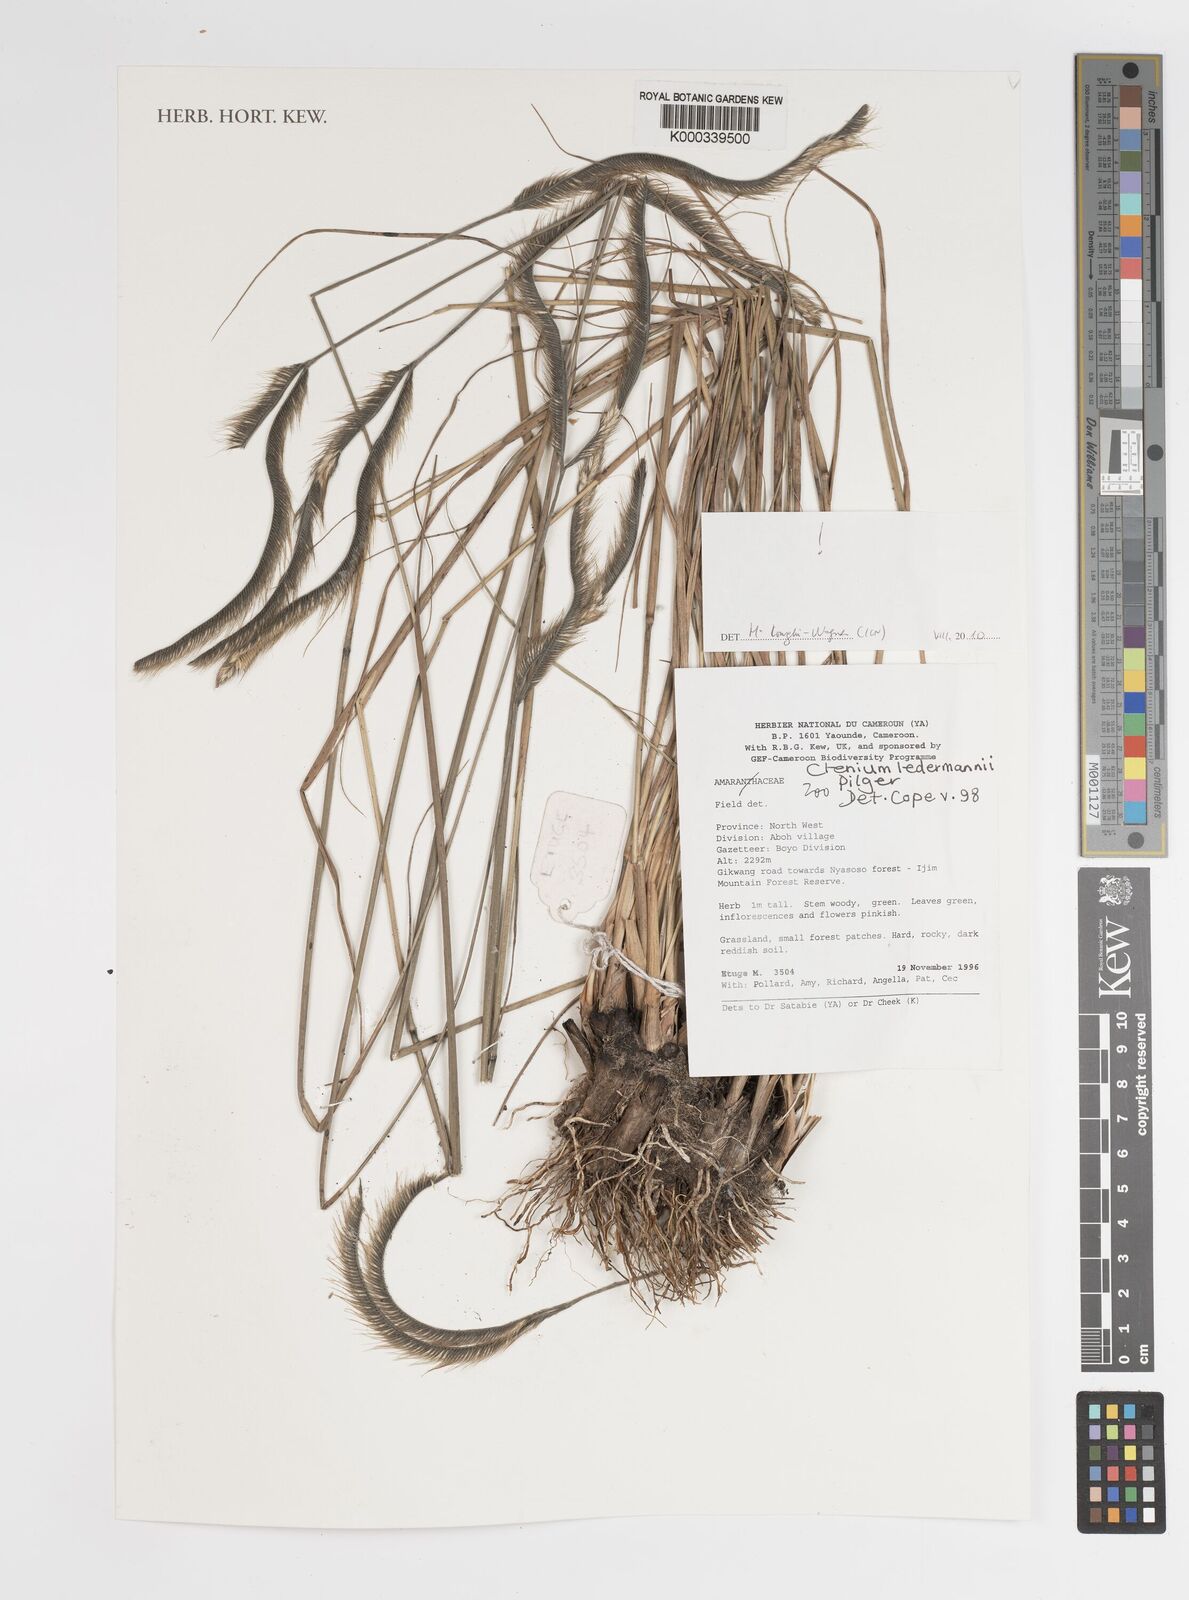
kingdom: Plantae
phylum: Tracheophyta
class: Liliopsida
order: Poales
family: Poaceae
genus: Ctenium
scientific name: Ctenium ledermannii
